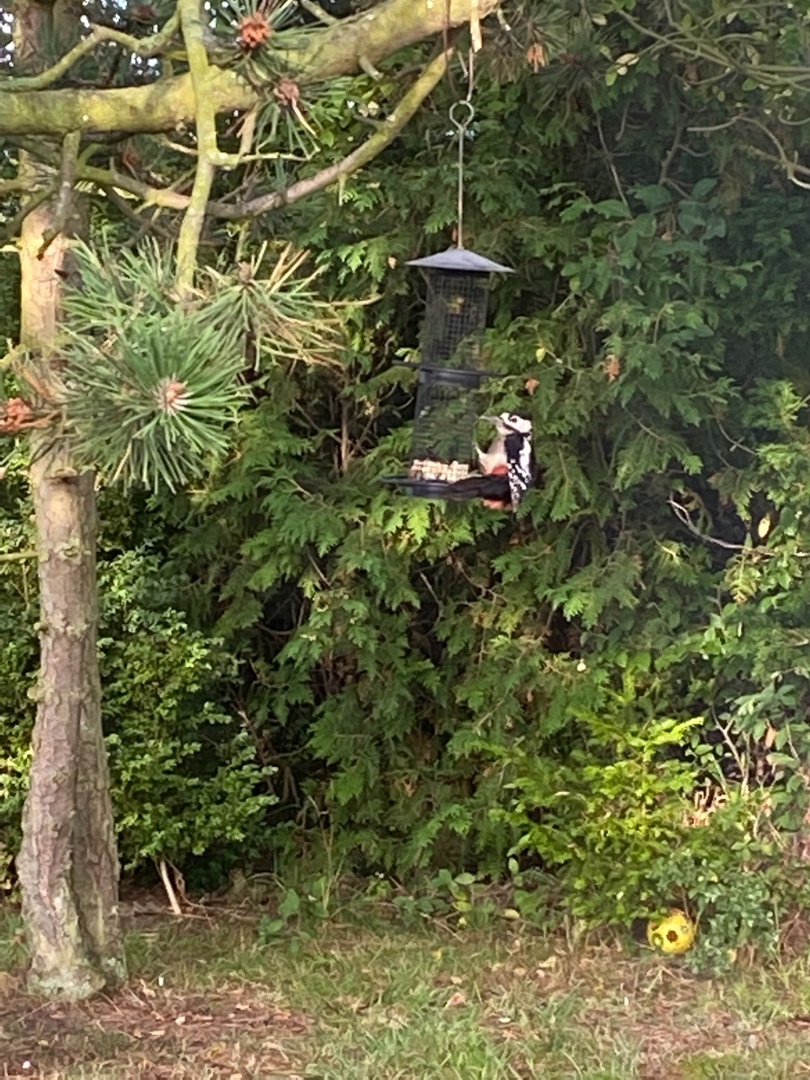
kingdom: Animalia
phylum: Chordata
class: Aves
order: Piciformes
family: Picidae
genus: Dendrocopos
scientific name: Dendrocopos major
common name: Stor flagspætte
